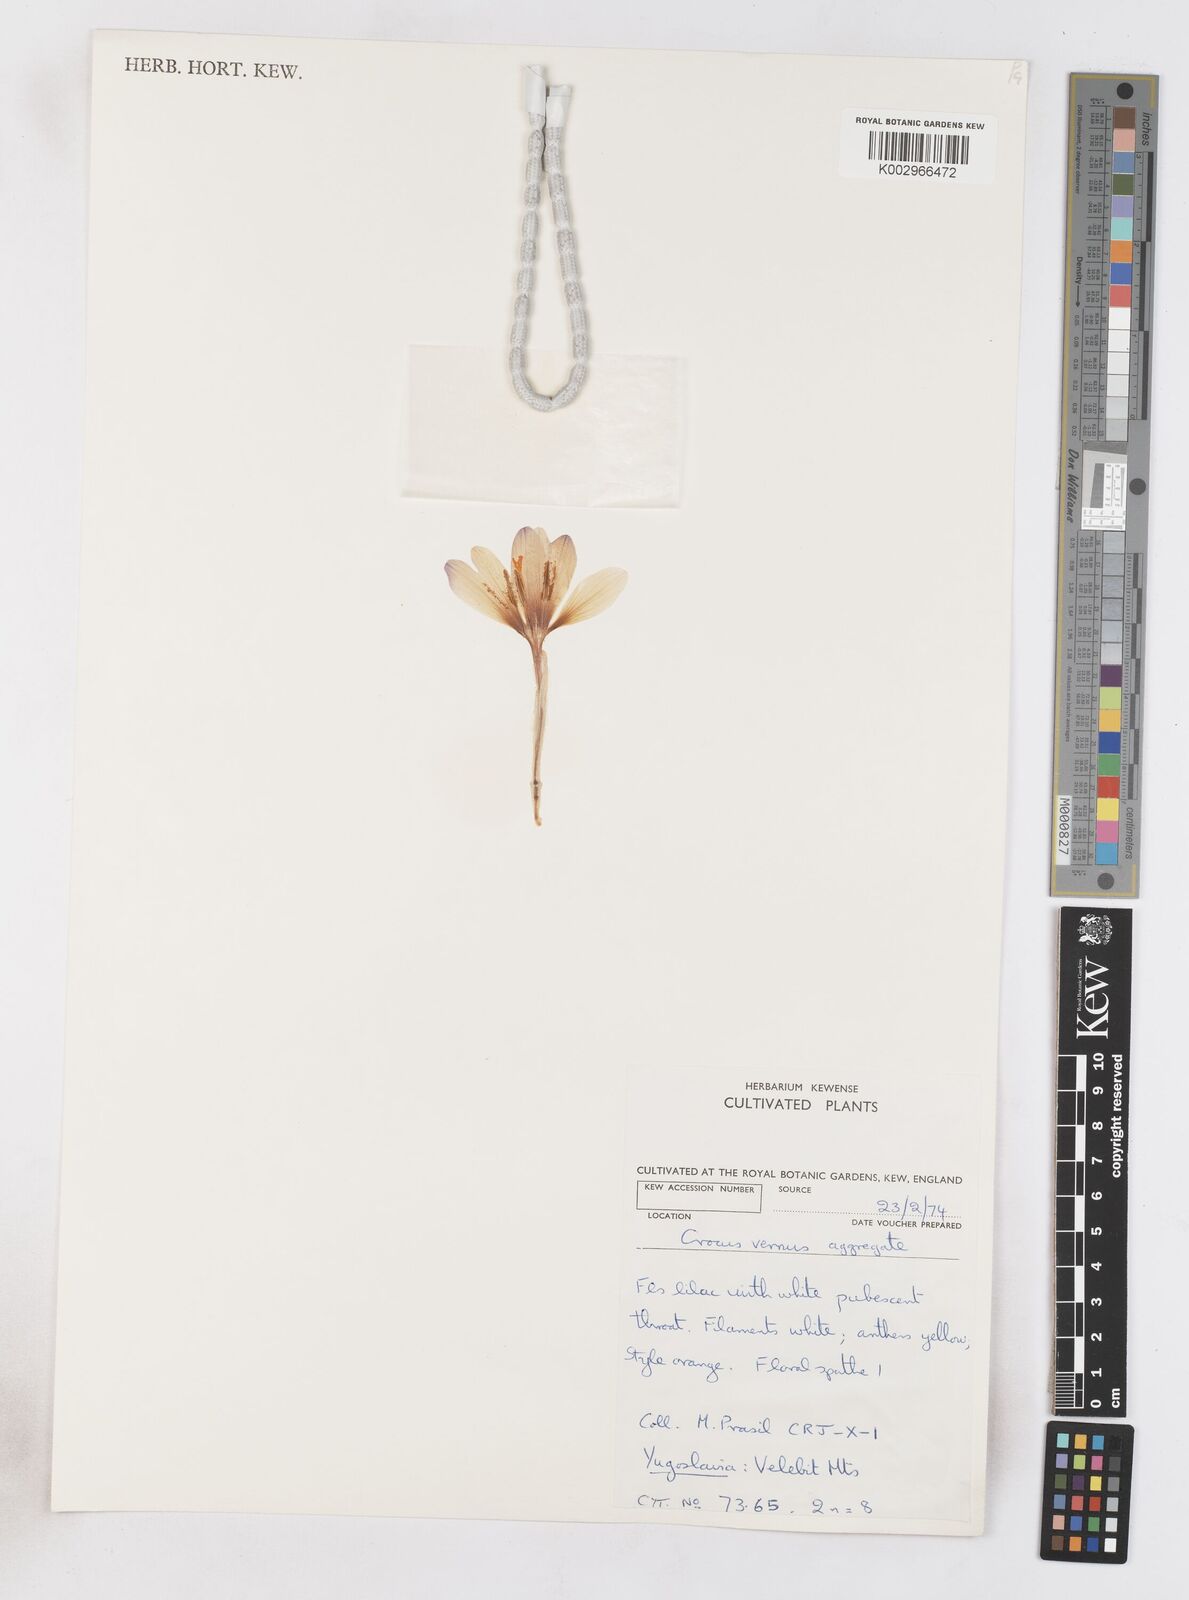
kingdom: Plantae
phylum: Tracheophyta
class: Liliopsida
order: Asparagales
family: Iridaceae
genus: Crocus
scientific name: Crocus vernus
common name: Spring crocus
